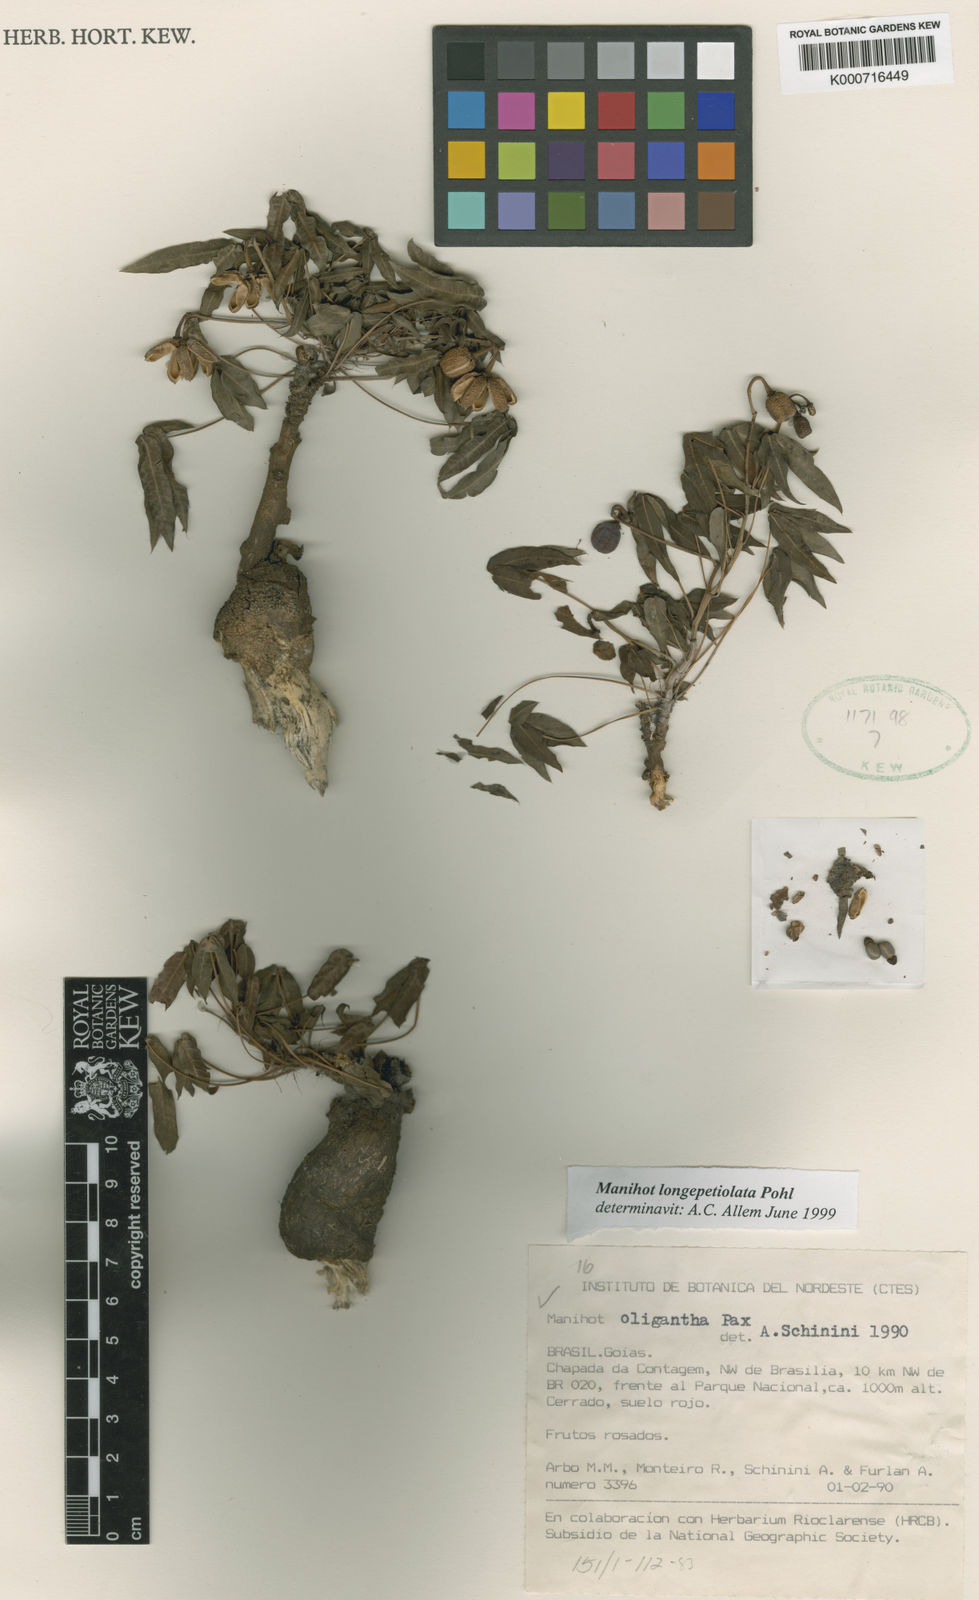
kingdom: Plantae
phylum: Tracheophyta
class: Magnoliopsida
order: Malpighiales
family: Euphorbiaceae
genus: Manihot
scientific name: Manihot longepetiolata
